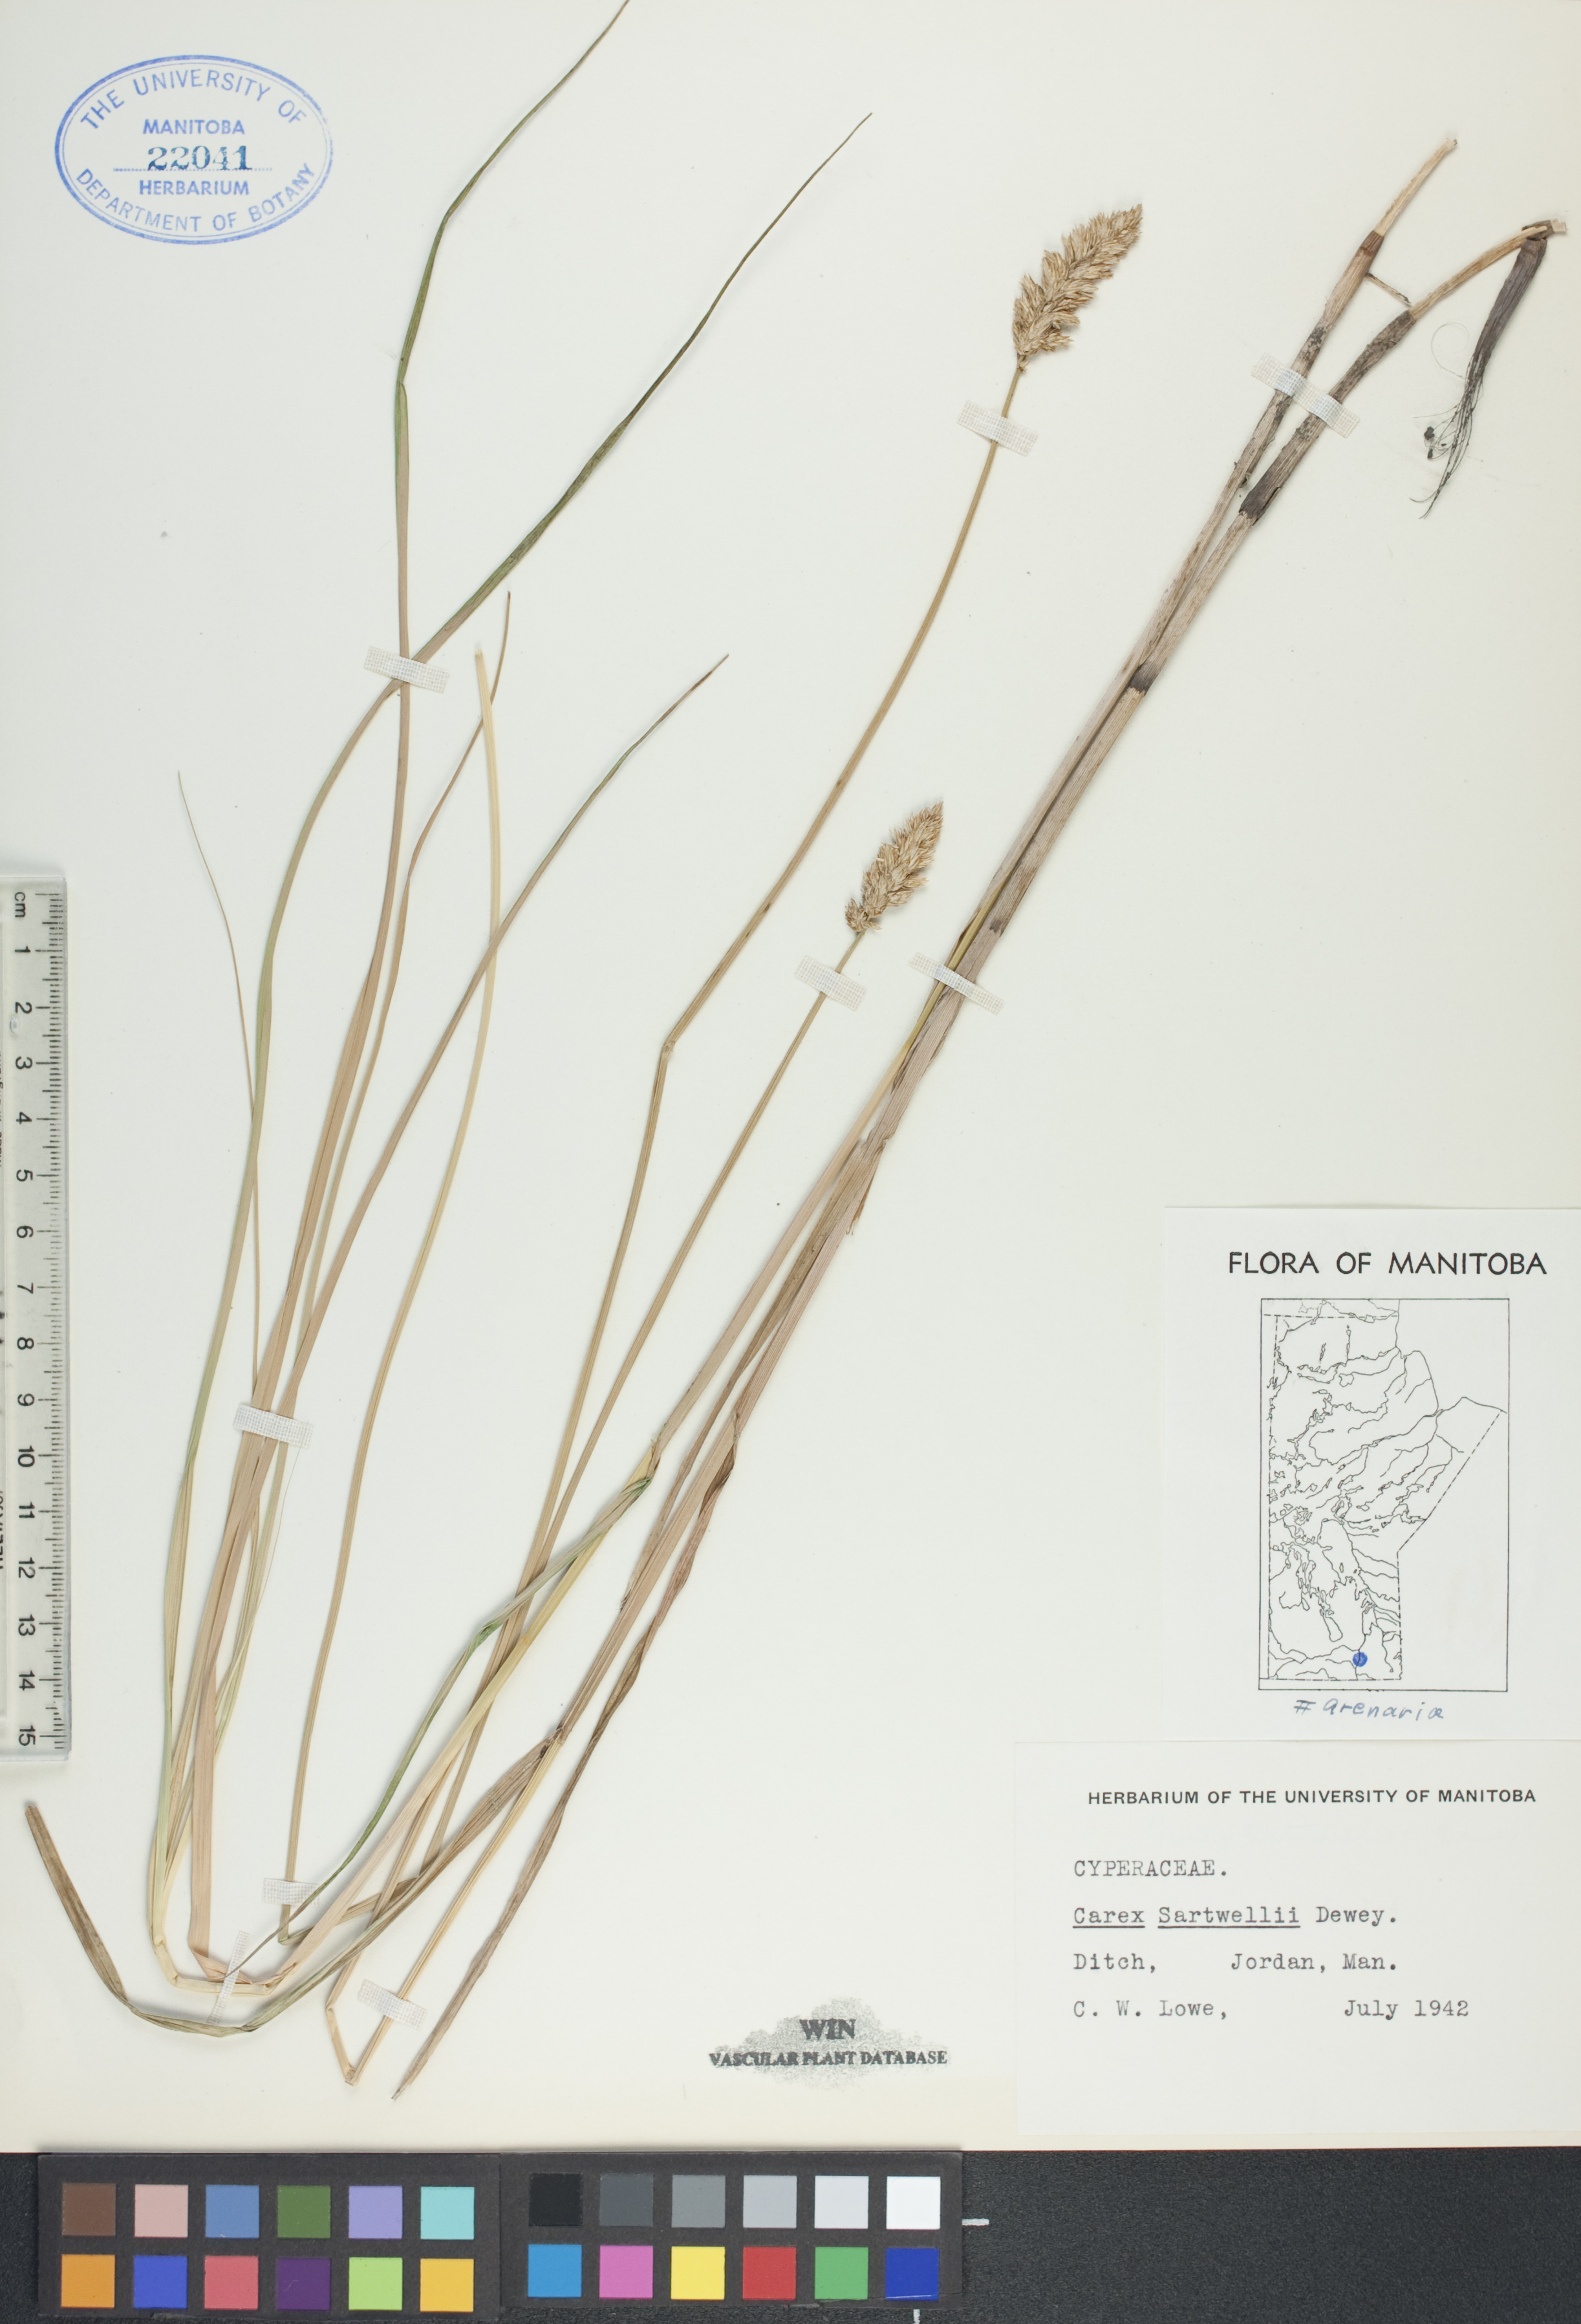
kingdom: Plantae
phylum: Tracheophyta
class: Liliopsida
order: Poales
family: Cyperaceae
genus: Carex
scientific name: Carex sartwellii
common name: Sartwell's sedge
